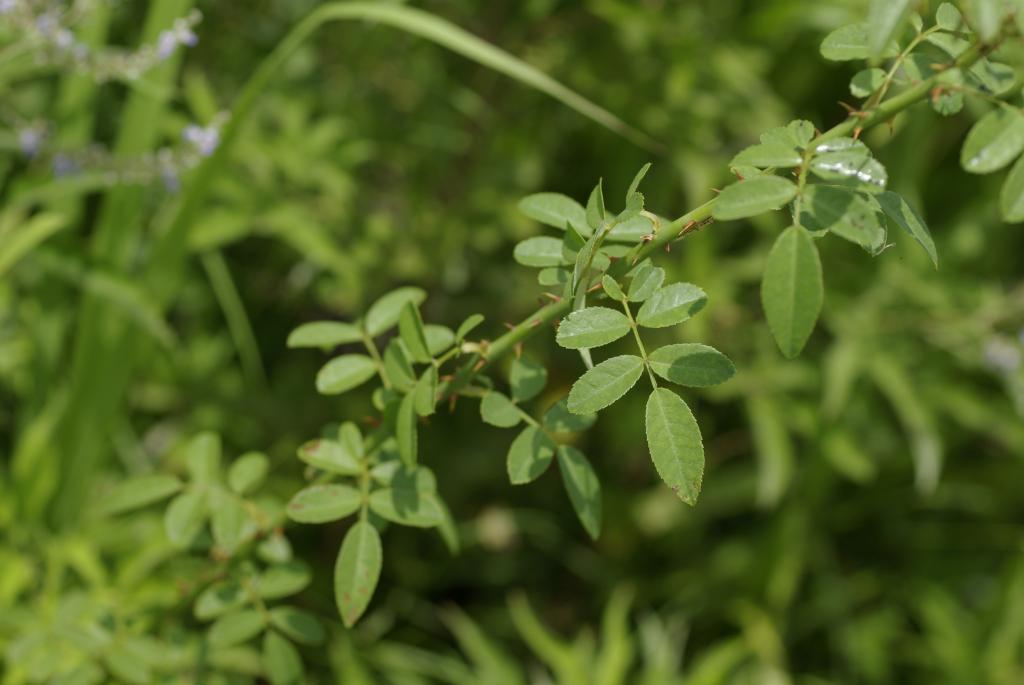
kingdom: Plantae
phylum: Tracheophyta
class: Magnoliopsida
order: Rosales
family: Rosaceae
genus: Rosa
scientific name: Rosa kwangtungensis
